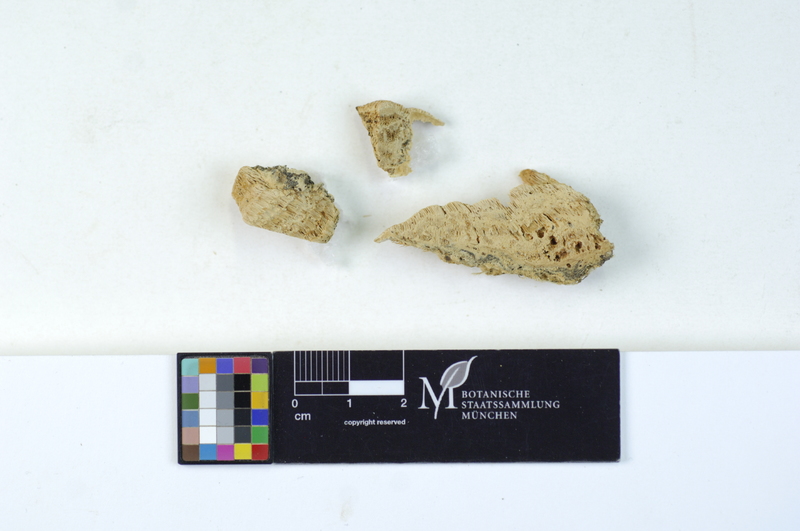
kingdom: Plantae
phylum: Tracheophyta
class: Pinopsida
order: Pinales
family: Pinaceae
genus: Picea
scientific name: Picea
